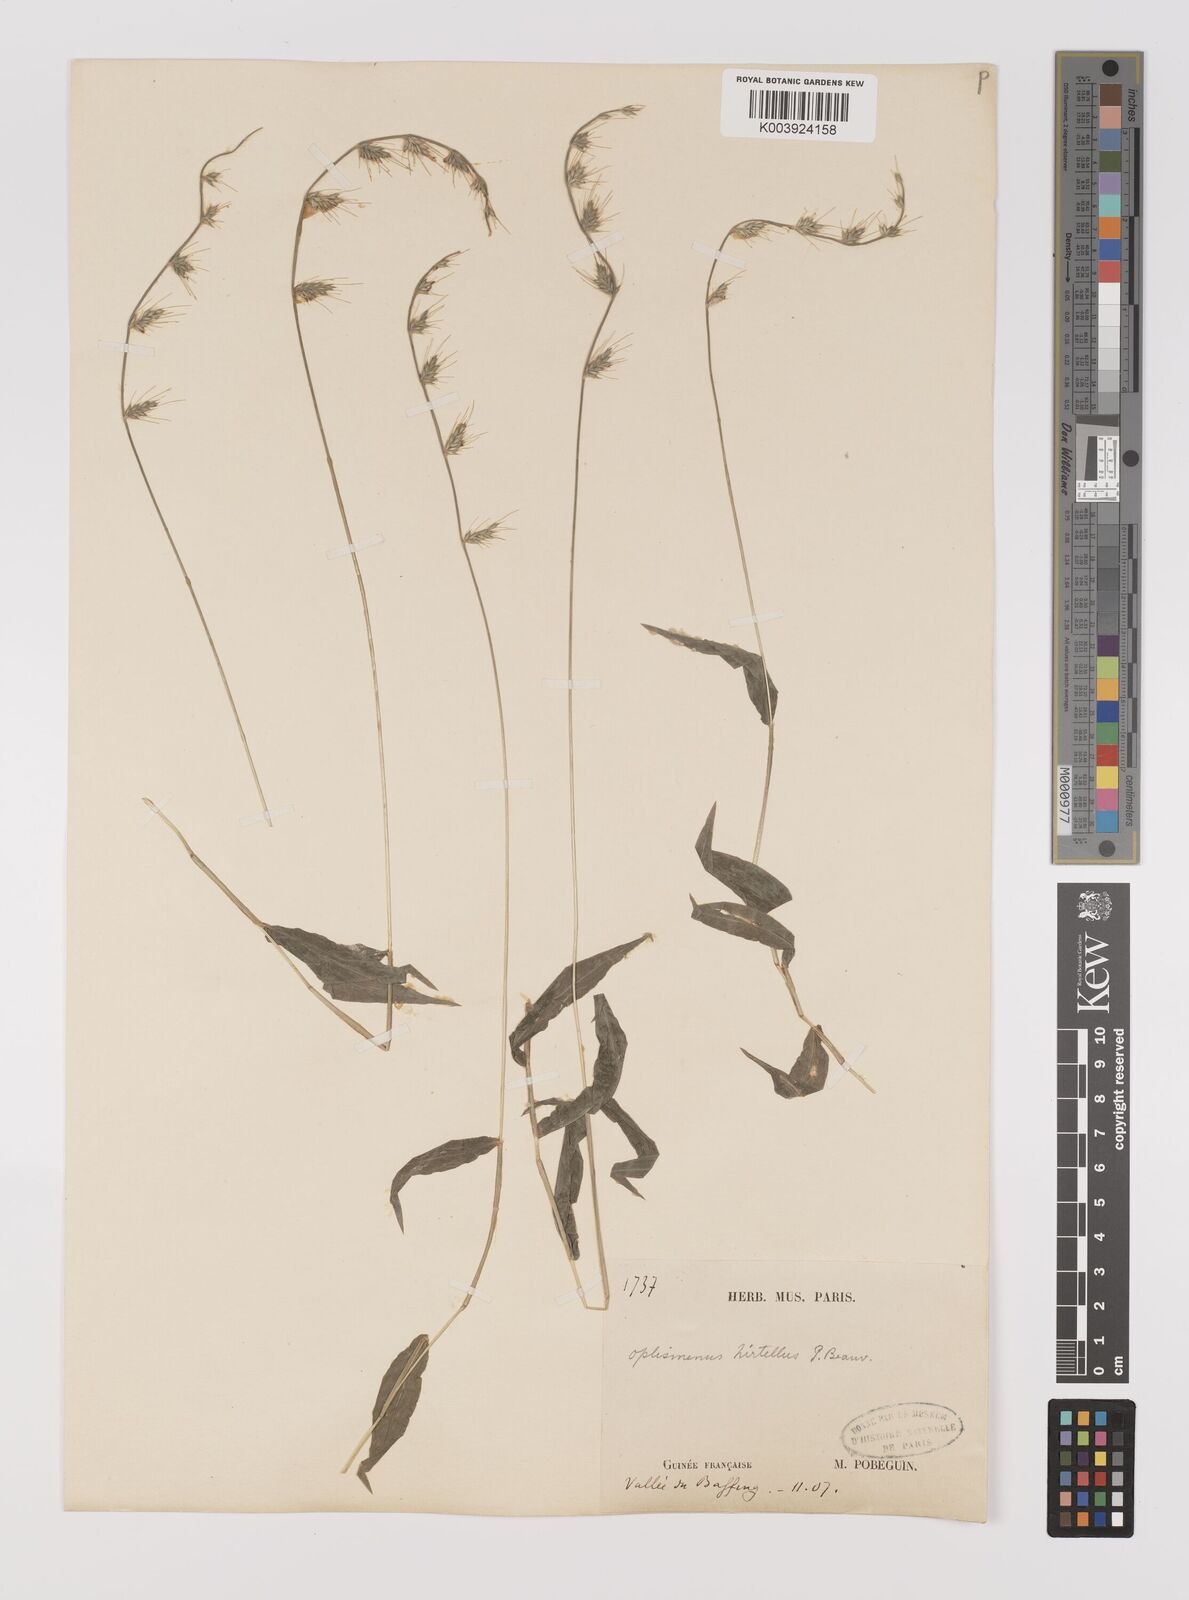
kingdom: Plantae
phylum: Tracheophyta
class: Liliopsida
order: Poales
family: Poaceae
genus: Oplismenus
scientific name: Oplismenus hirtellus
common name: Basketgrass
